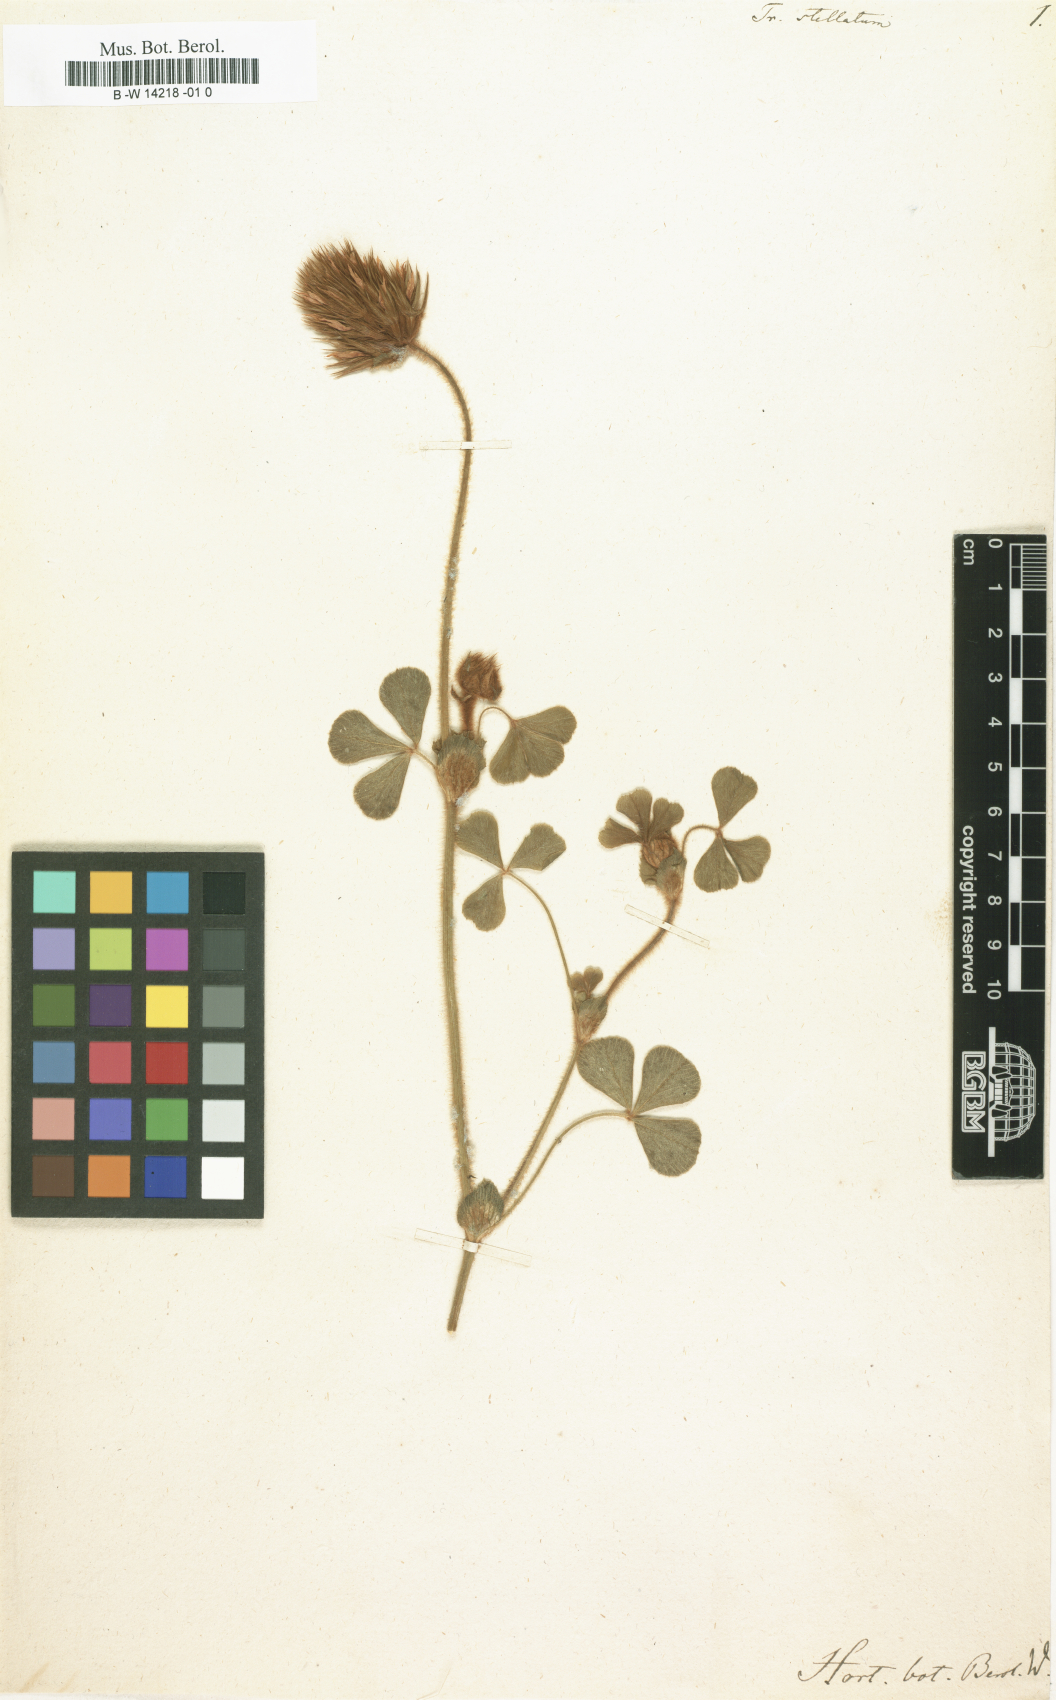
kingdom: Plantae
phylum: Tracheophyta
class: Magnoliopsida
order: Fabales
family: Fabaceae
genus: Trifolium
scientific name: Trifolium stellatum
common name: Starry clover
